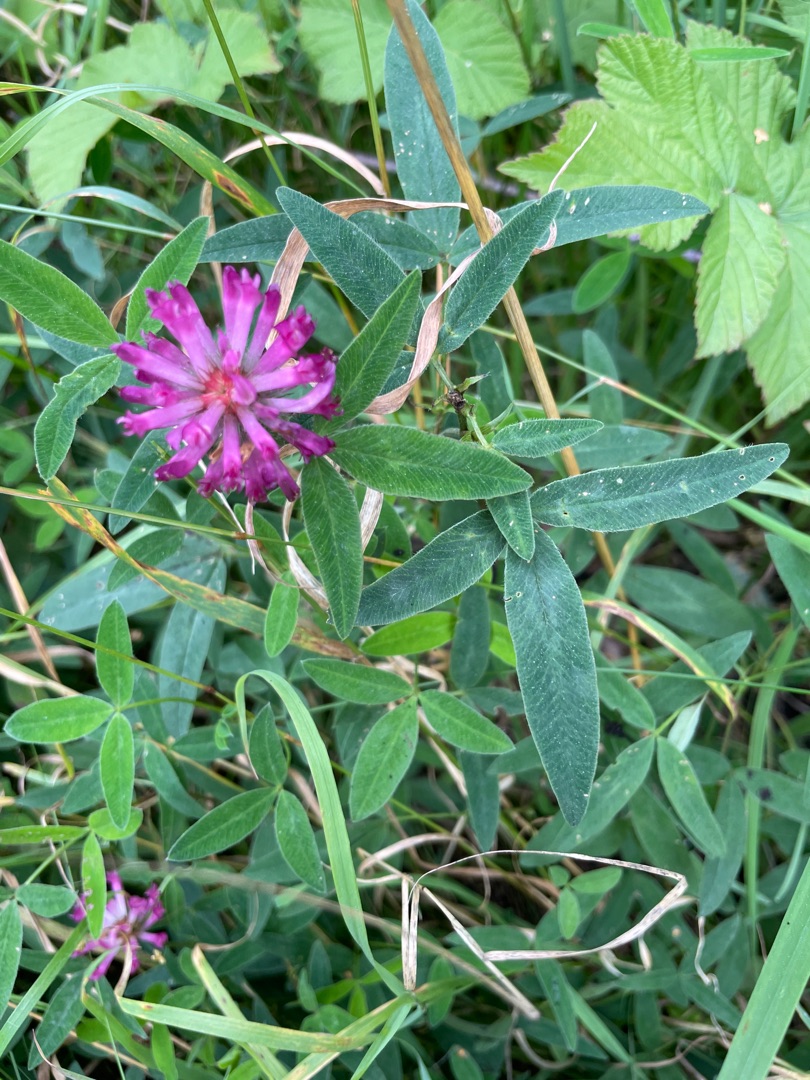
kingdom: Plantae
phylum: Tracheophyta
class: Magnoliopsida
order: Fabales
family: Fabaceae
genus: Trifolium
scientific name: Trifolium medium
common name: Bugtet kløver
